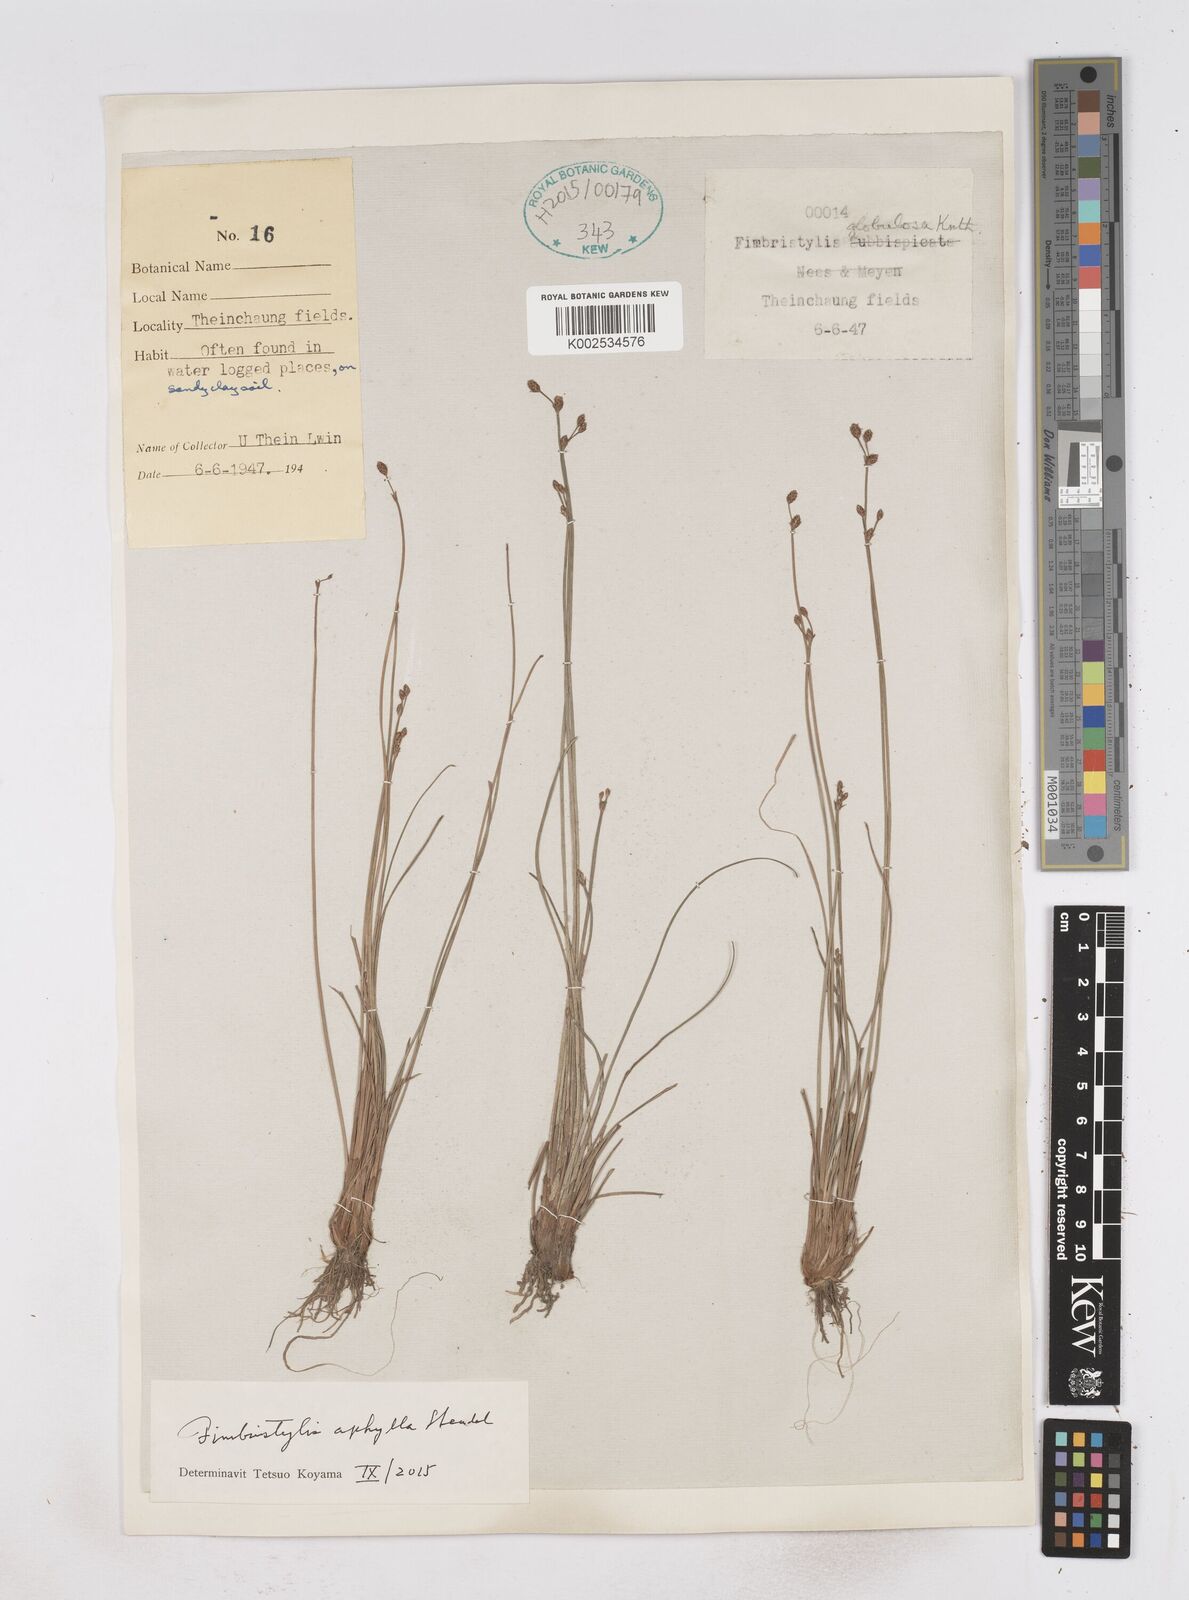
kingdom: Plantae
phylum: Tracheophyta
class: Liliopsida
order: Poales
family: Cyperaceae
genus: Fimbristylis
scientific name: Fimbristylis aphylla
